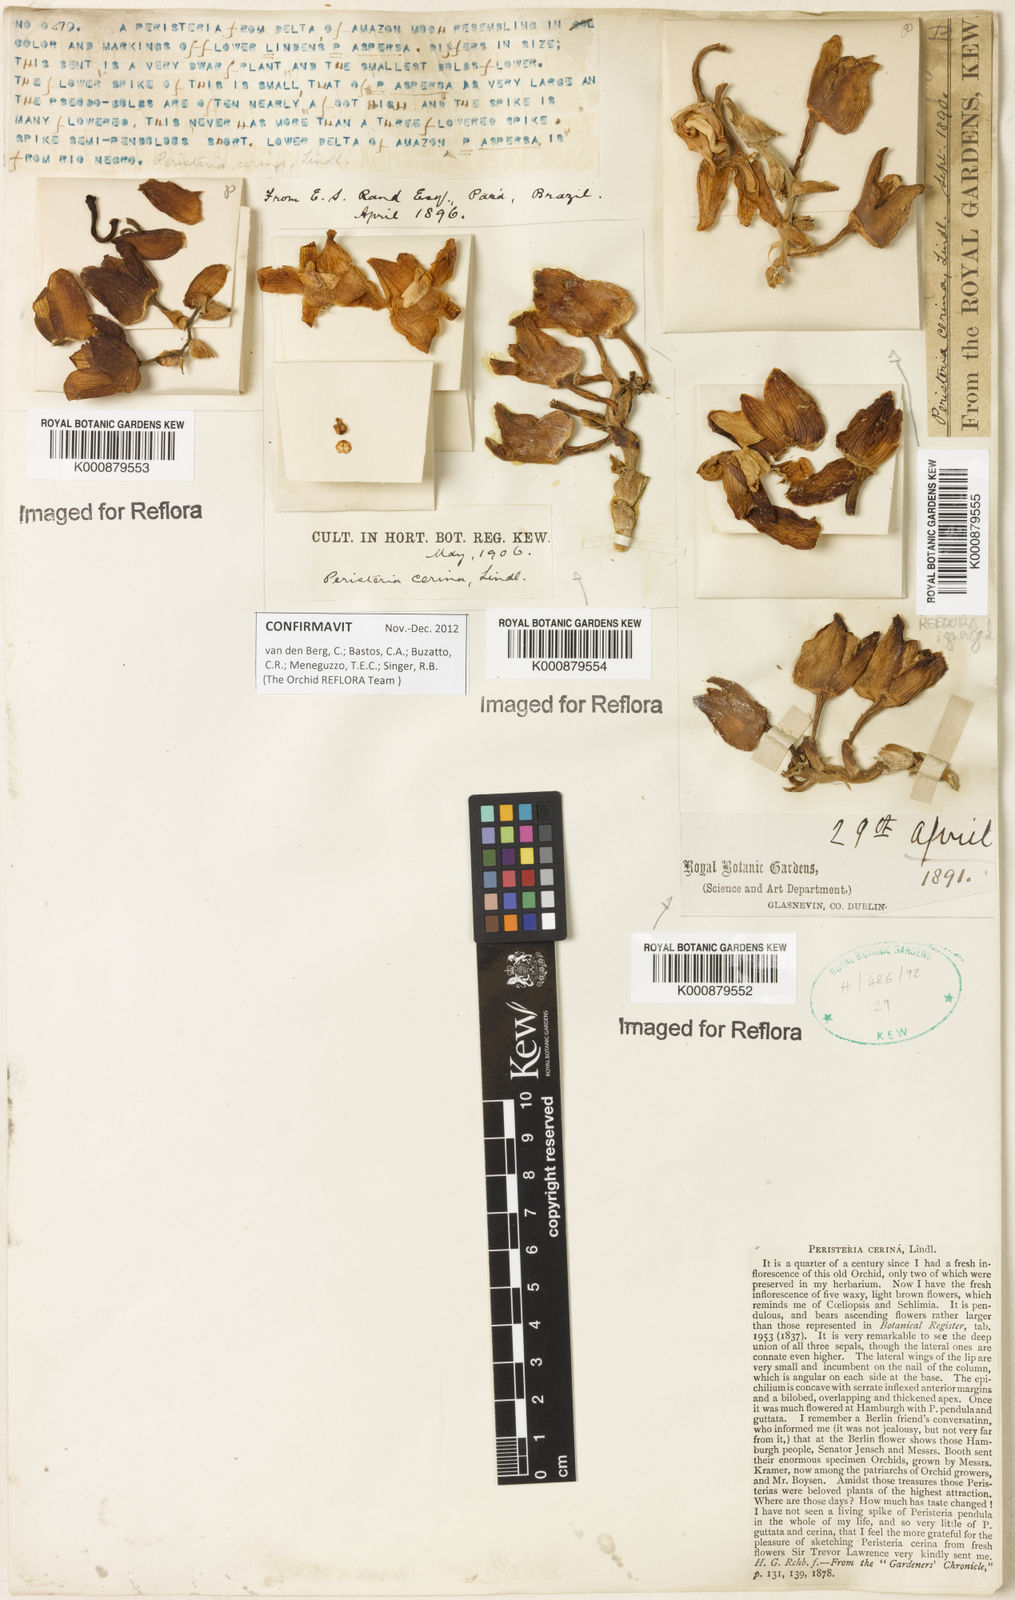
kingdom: Plantae
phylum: Tracheophyta
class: Liliopsida
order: Asparagales
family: Orchidaceae
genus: Peristeria
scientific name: Peristeria cerina
